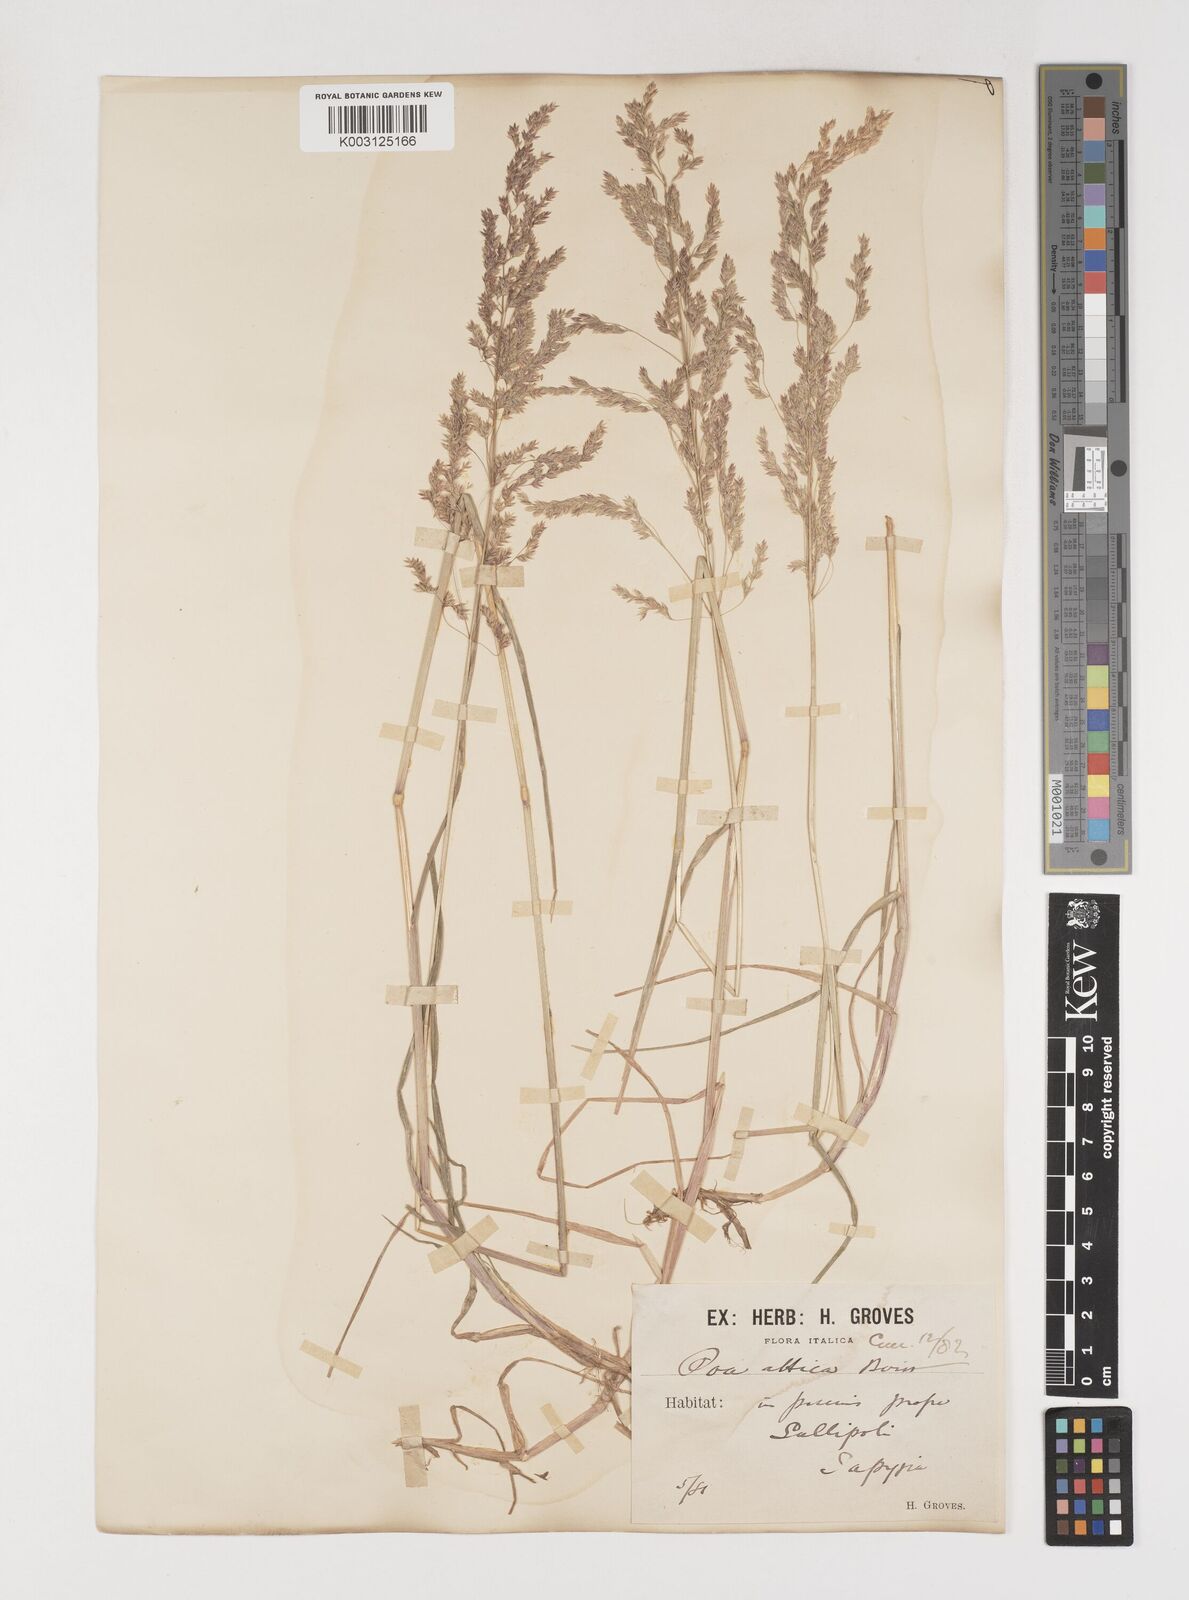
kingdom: Plantae
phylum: Tracheophyta
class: Liliopsida
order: Poales
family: Poaceae
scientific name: Poaceae
